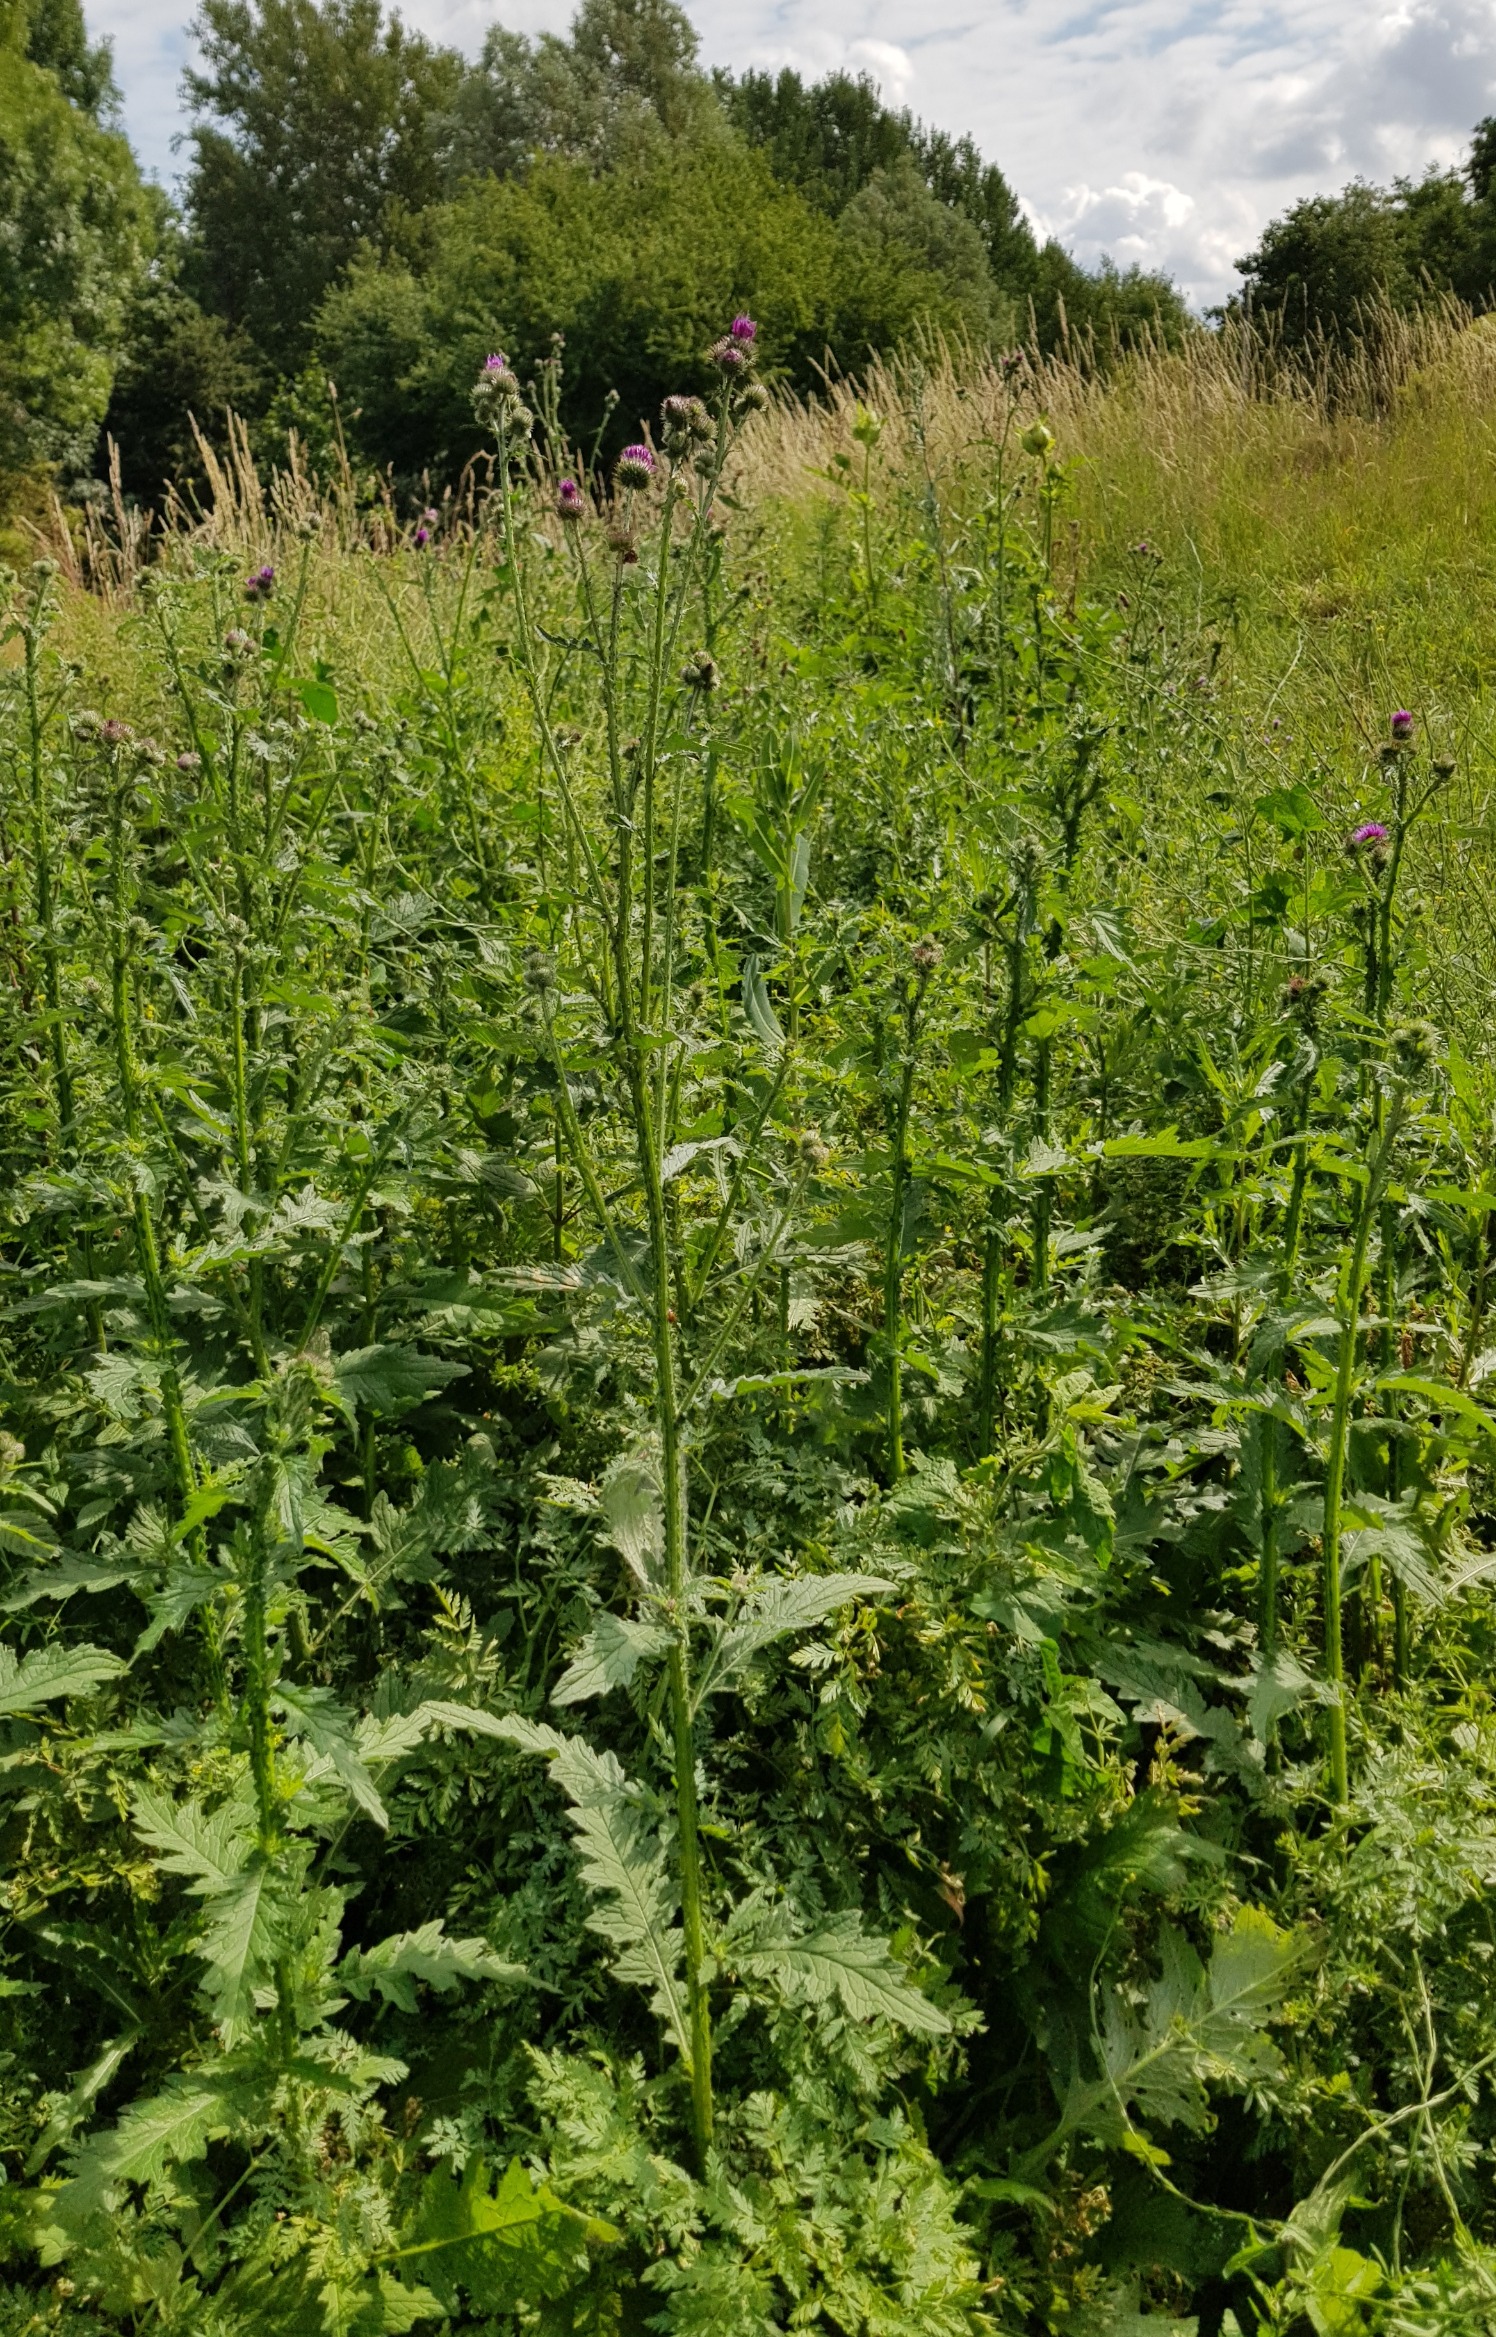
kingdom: Plantae
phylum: Tracheophyta
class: Magnoliopsida
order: Asterales
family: Asteraceae
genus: Carduus
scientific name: Carduus crispus
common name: Kruset tidsel
